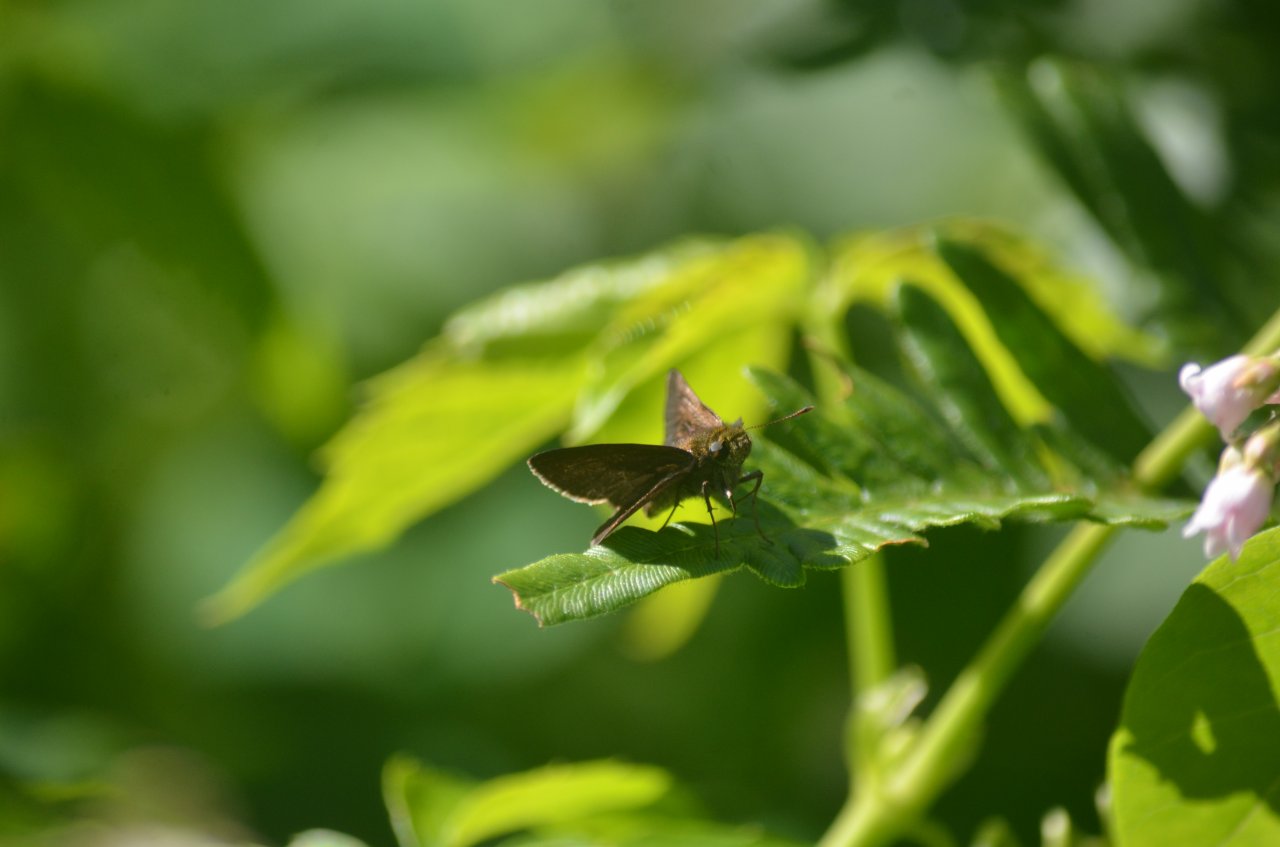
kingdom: Animalia
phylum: Arthropoda
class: Insecta
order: Lepidoptera
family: Hesperiidae
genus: Euphyes
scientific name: Euphyes vestris
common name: Dun Skipper
